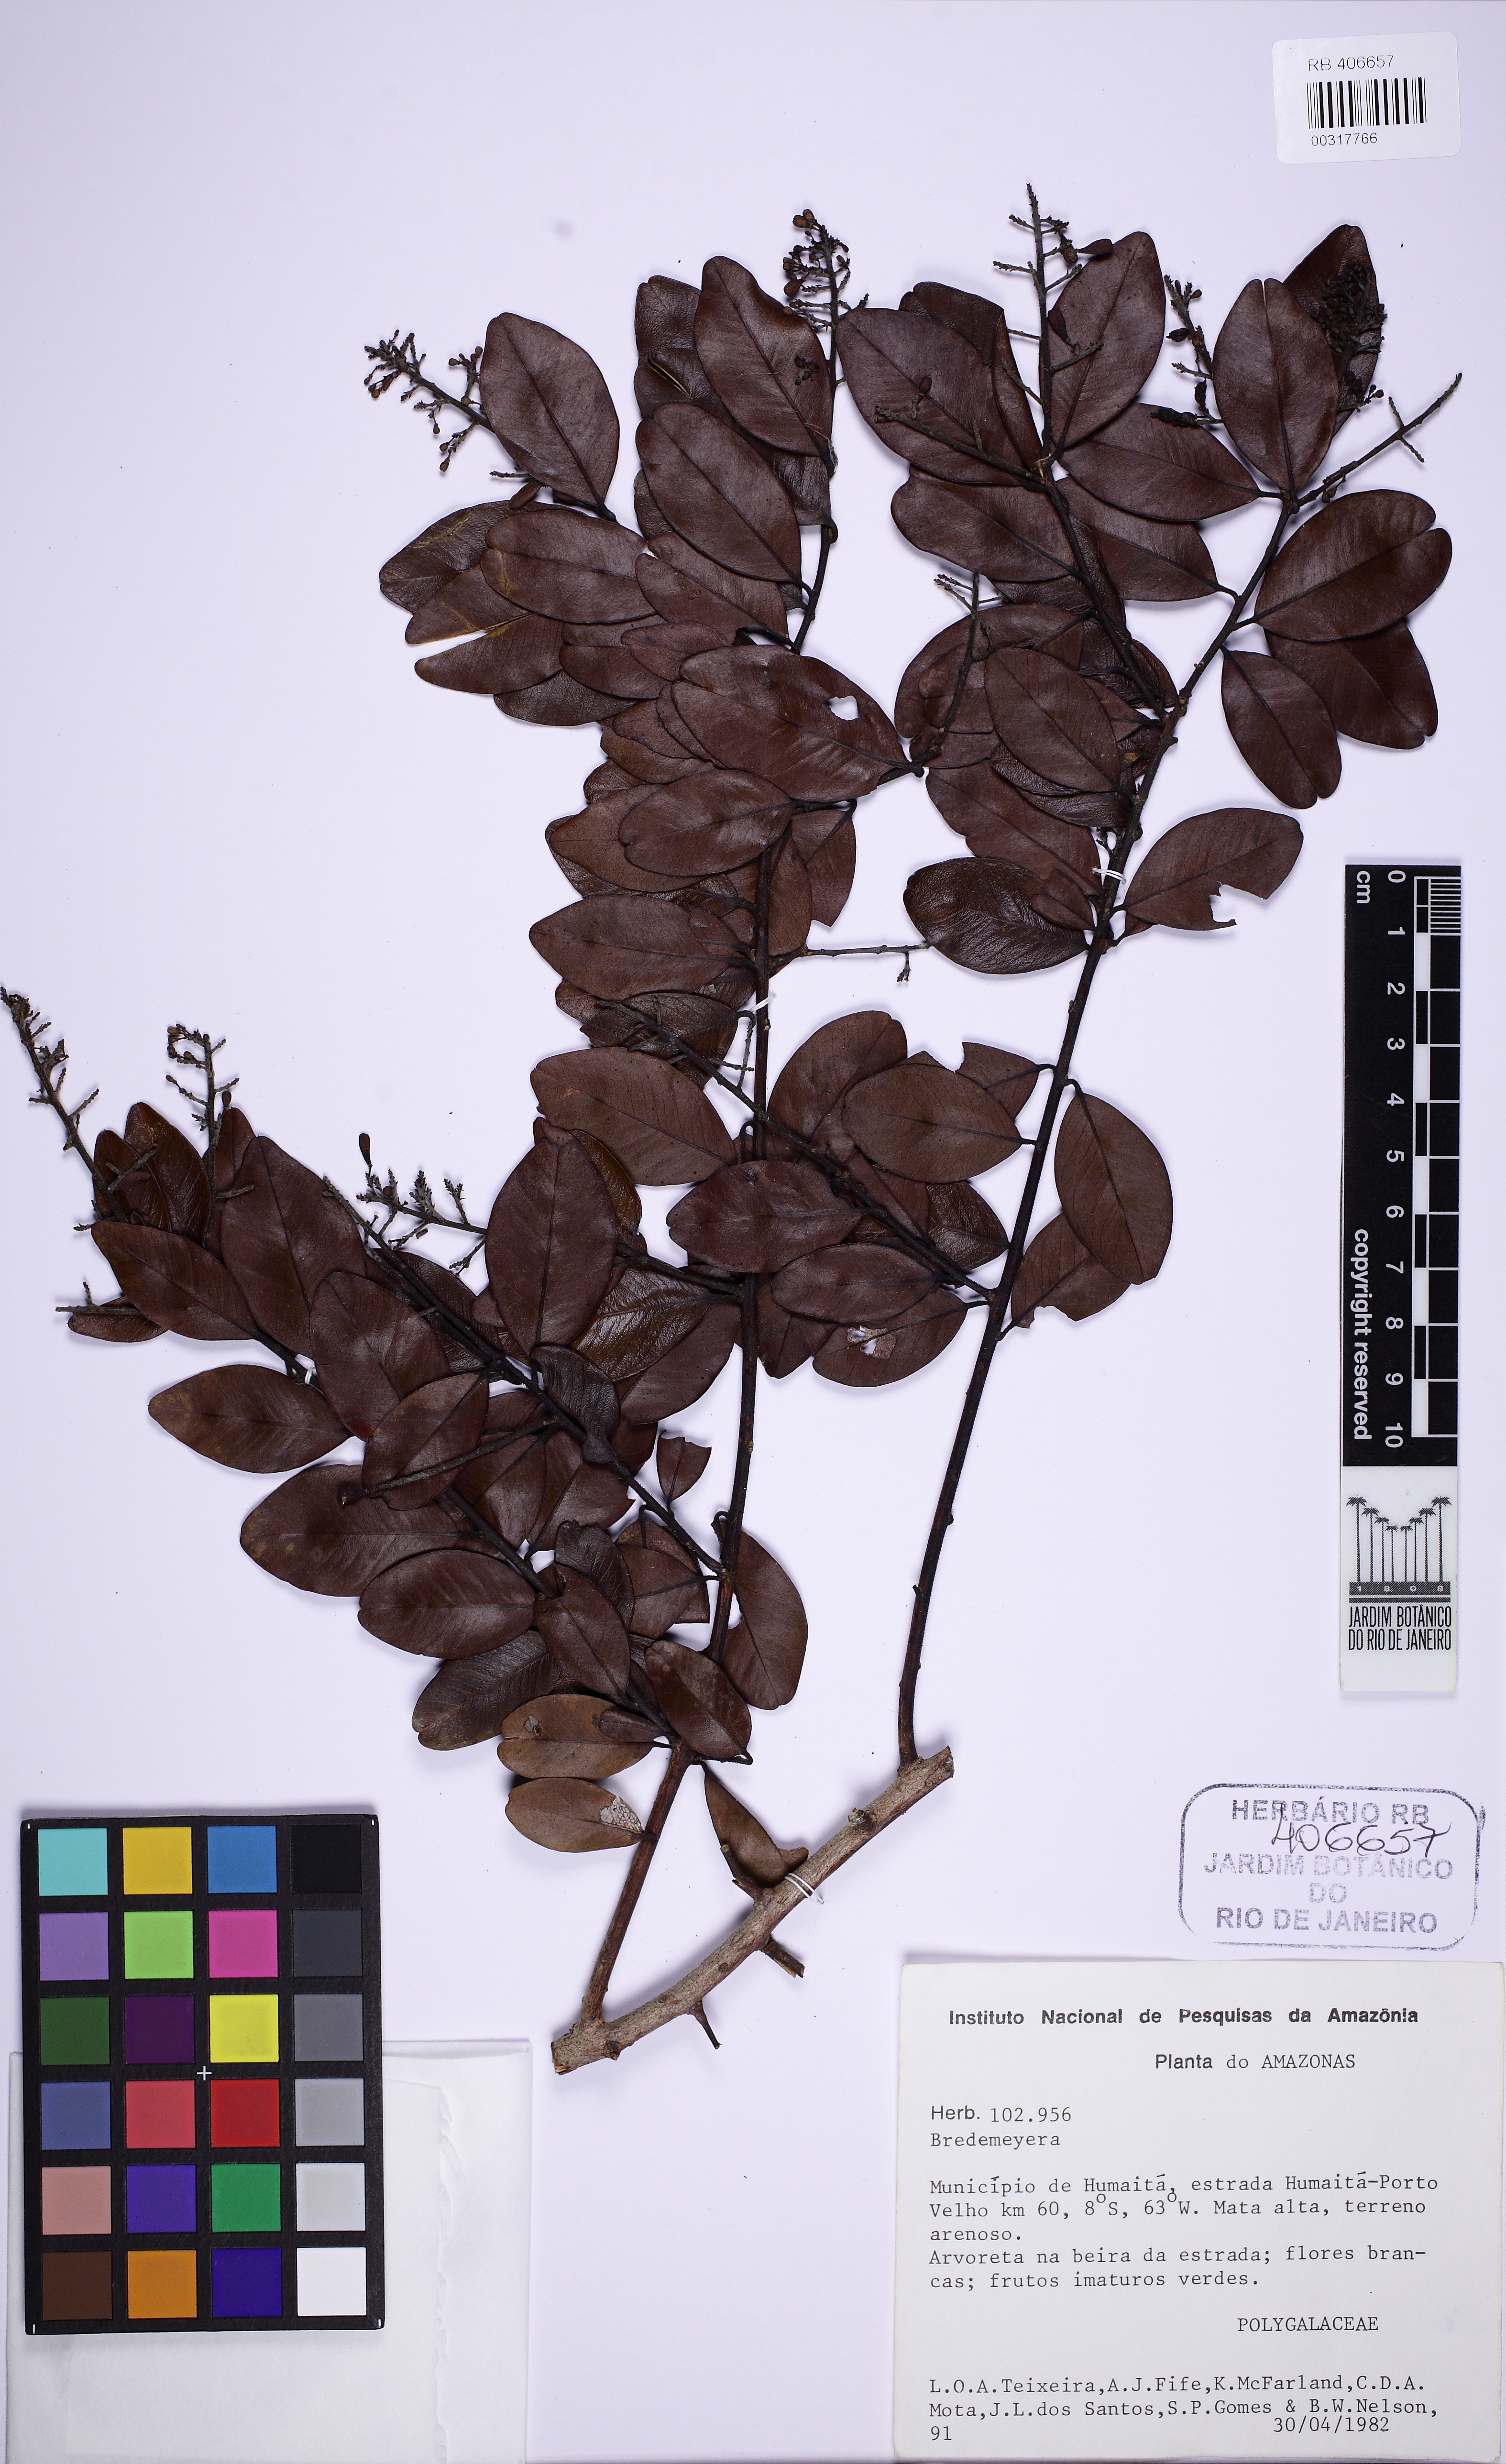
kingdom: Plantae
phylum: Tracheophyta
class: Magnoliopsida
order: Fabales
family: Polygalaceae
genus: Bredemeyera
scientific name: Bredemeyera myrtifolia
